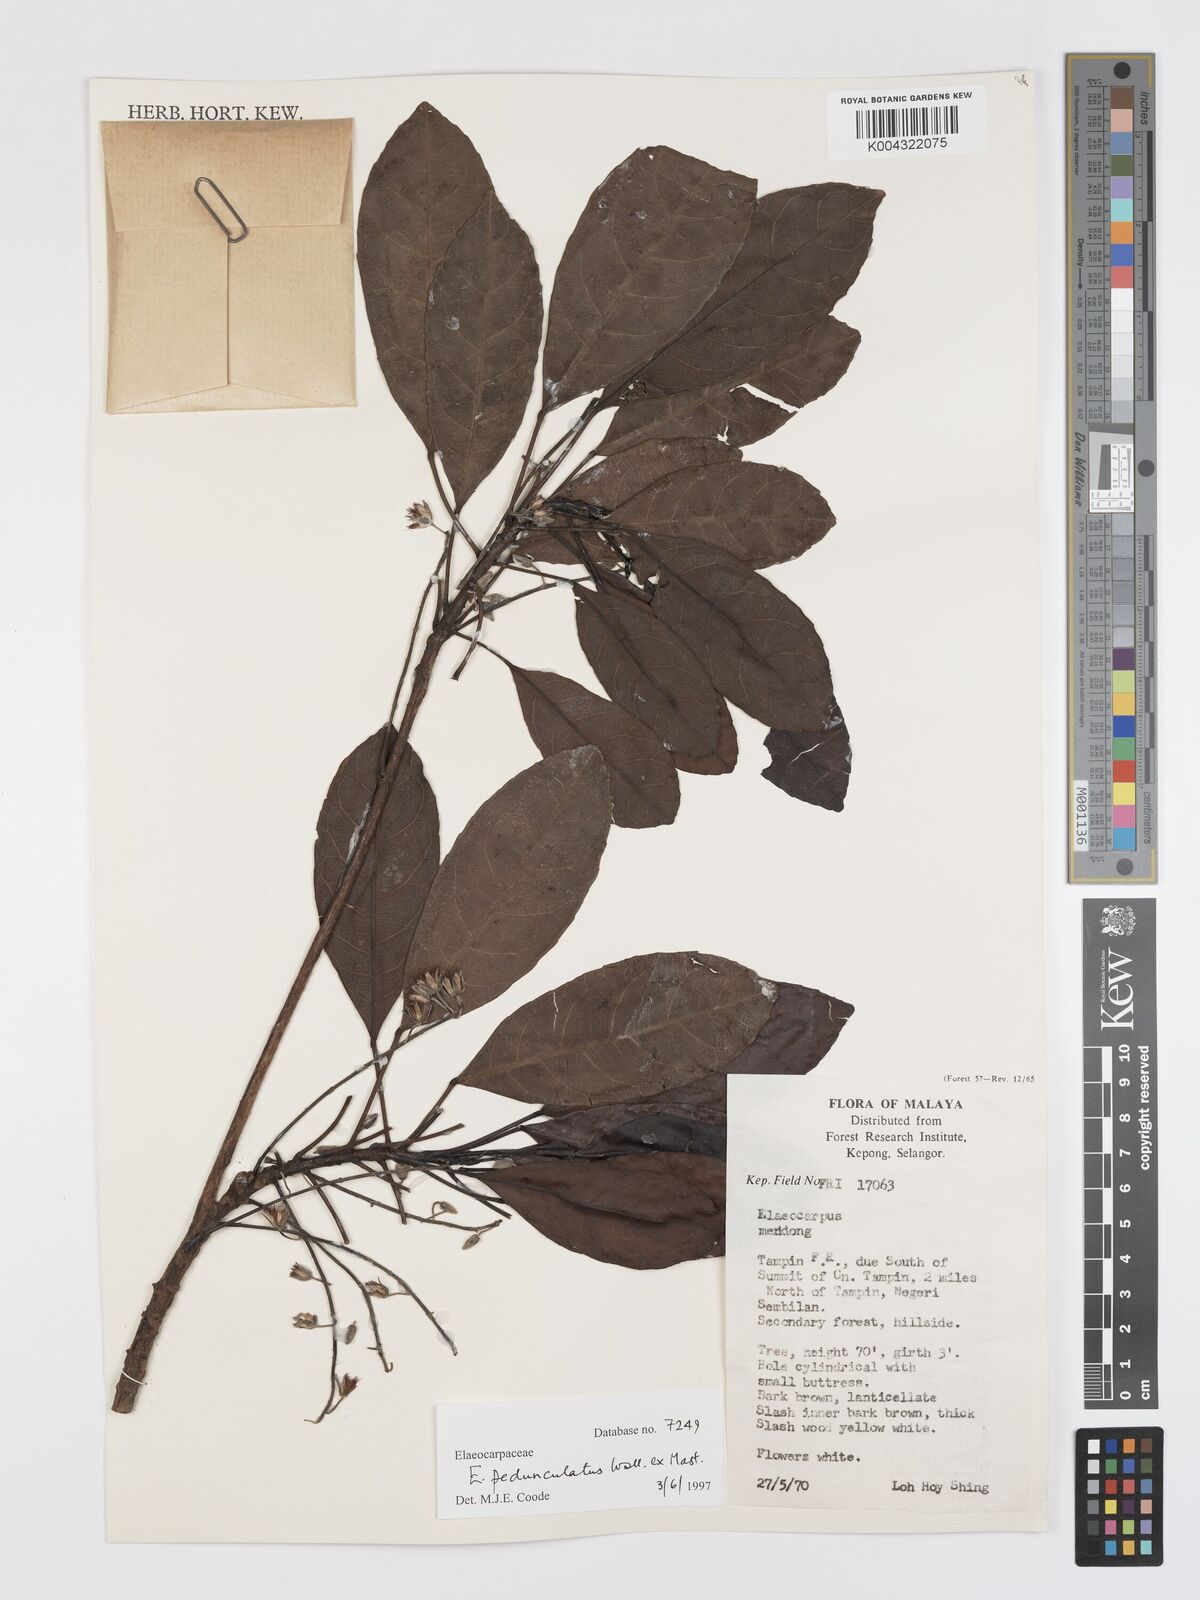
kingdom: Plantae
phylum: Tracheophyta
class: Magnoliopsida
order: Oxalidales
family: Elaeocarpaceae
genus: Elaeocarpus
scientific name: Elaeocarpus pedunculatus
